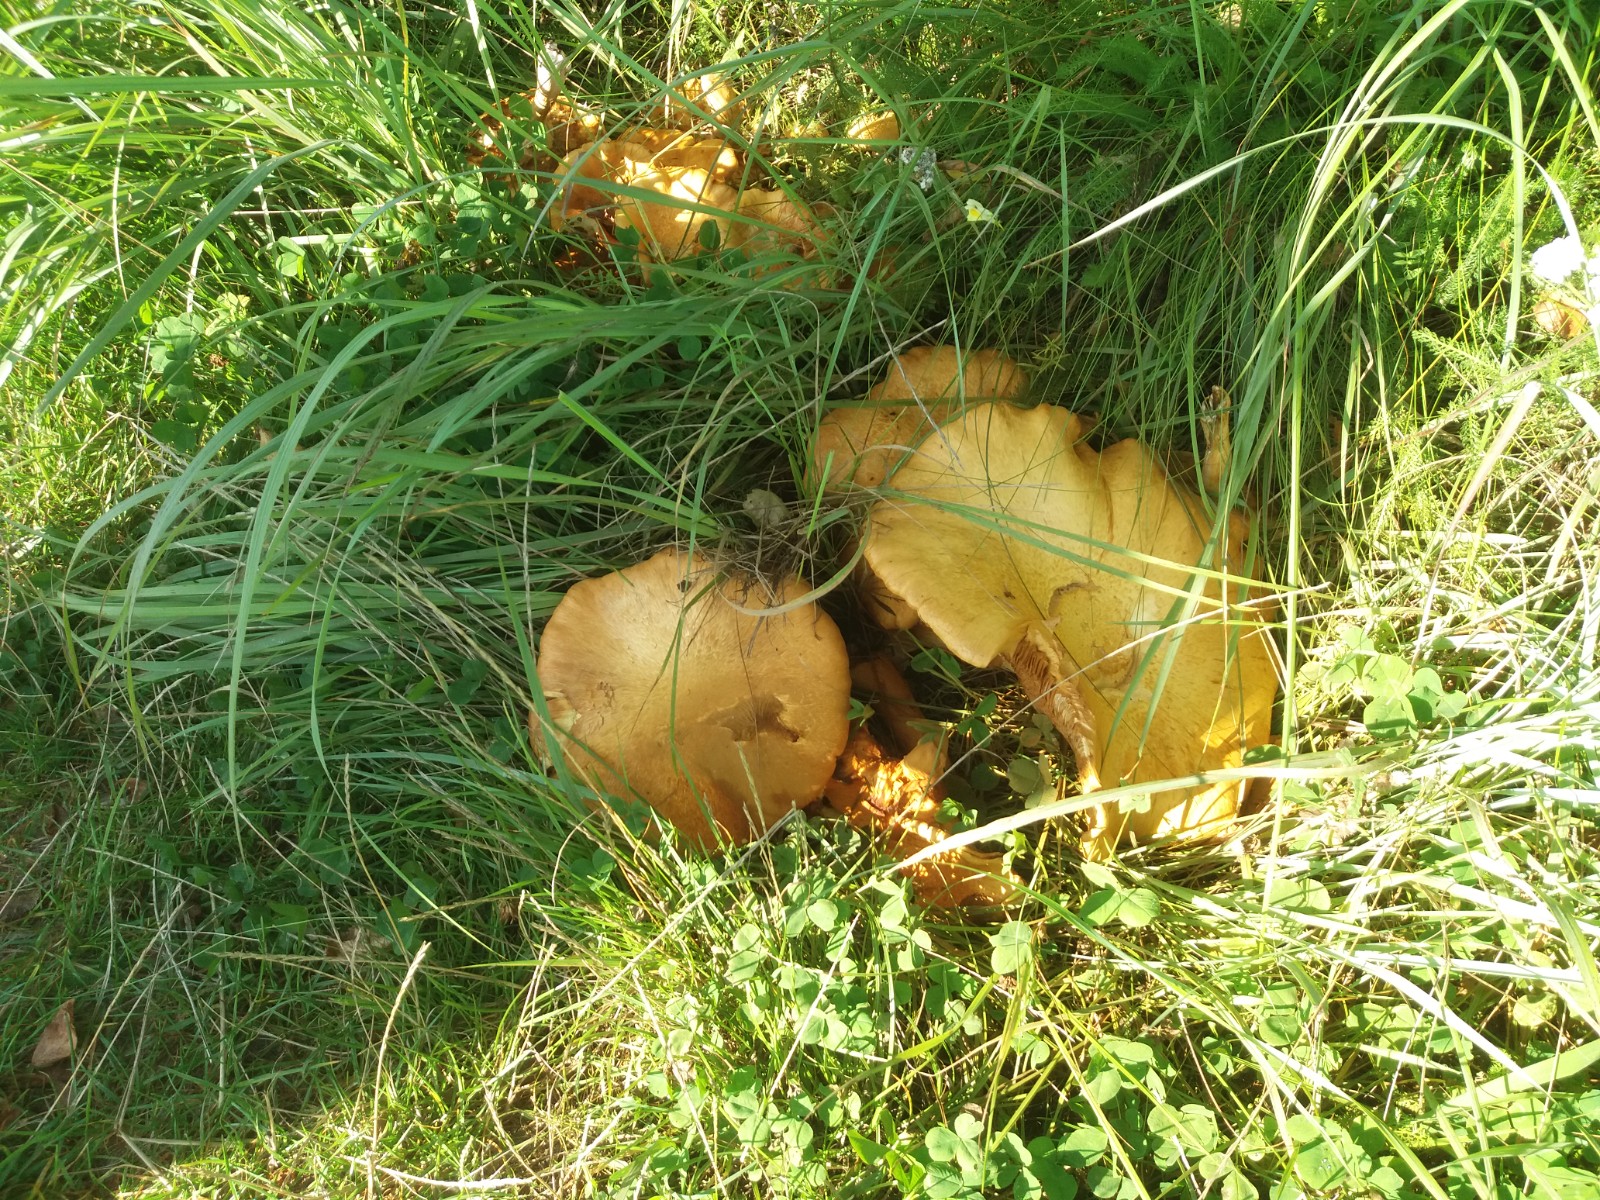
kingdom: Fungi
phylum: Basidiomycota
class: Agaricomycetes
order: Agaricales
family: Tricholomataceae
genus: Phaeolepiota
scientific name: Phaeolepiota aurea
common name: gyldenhat
